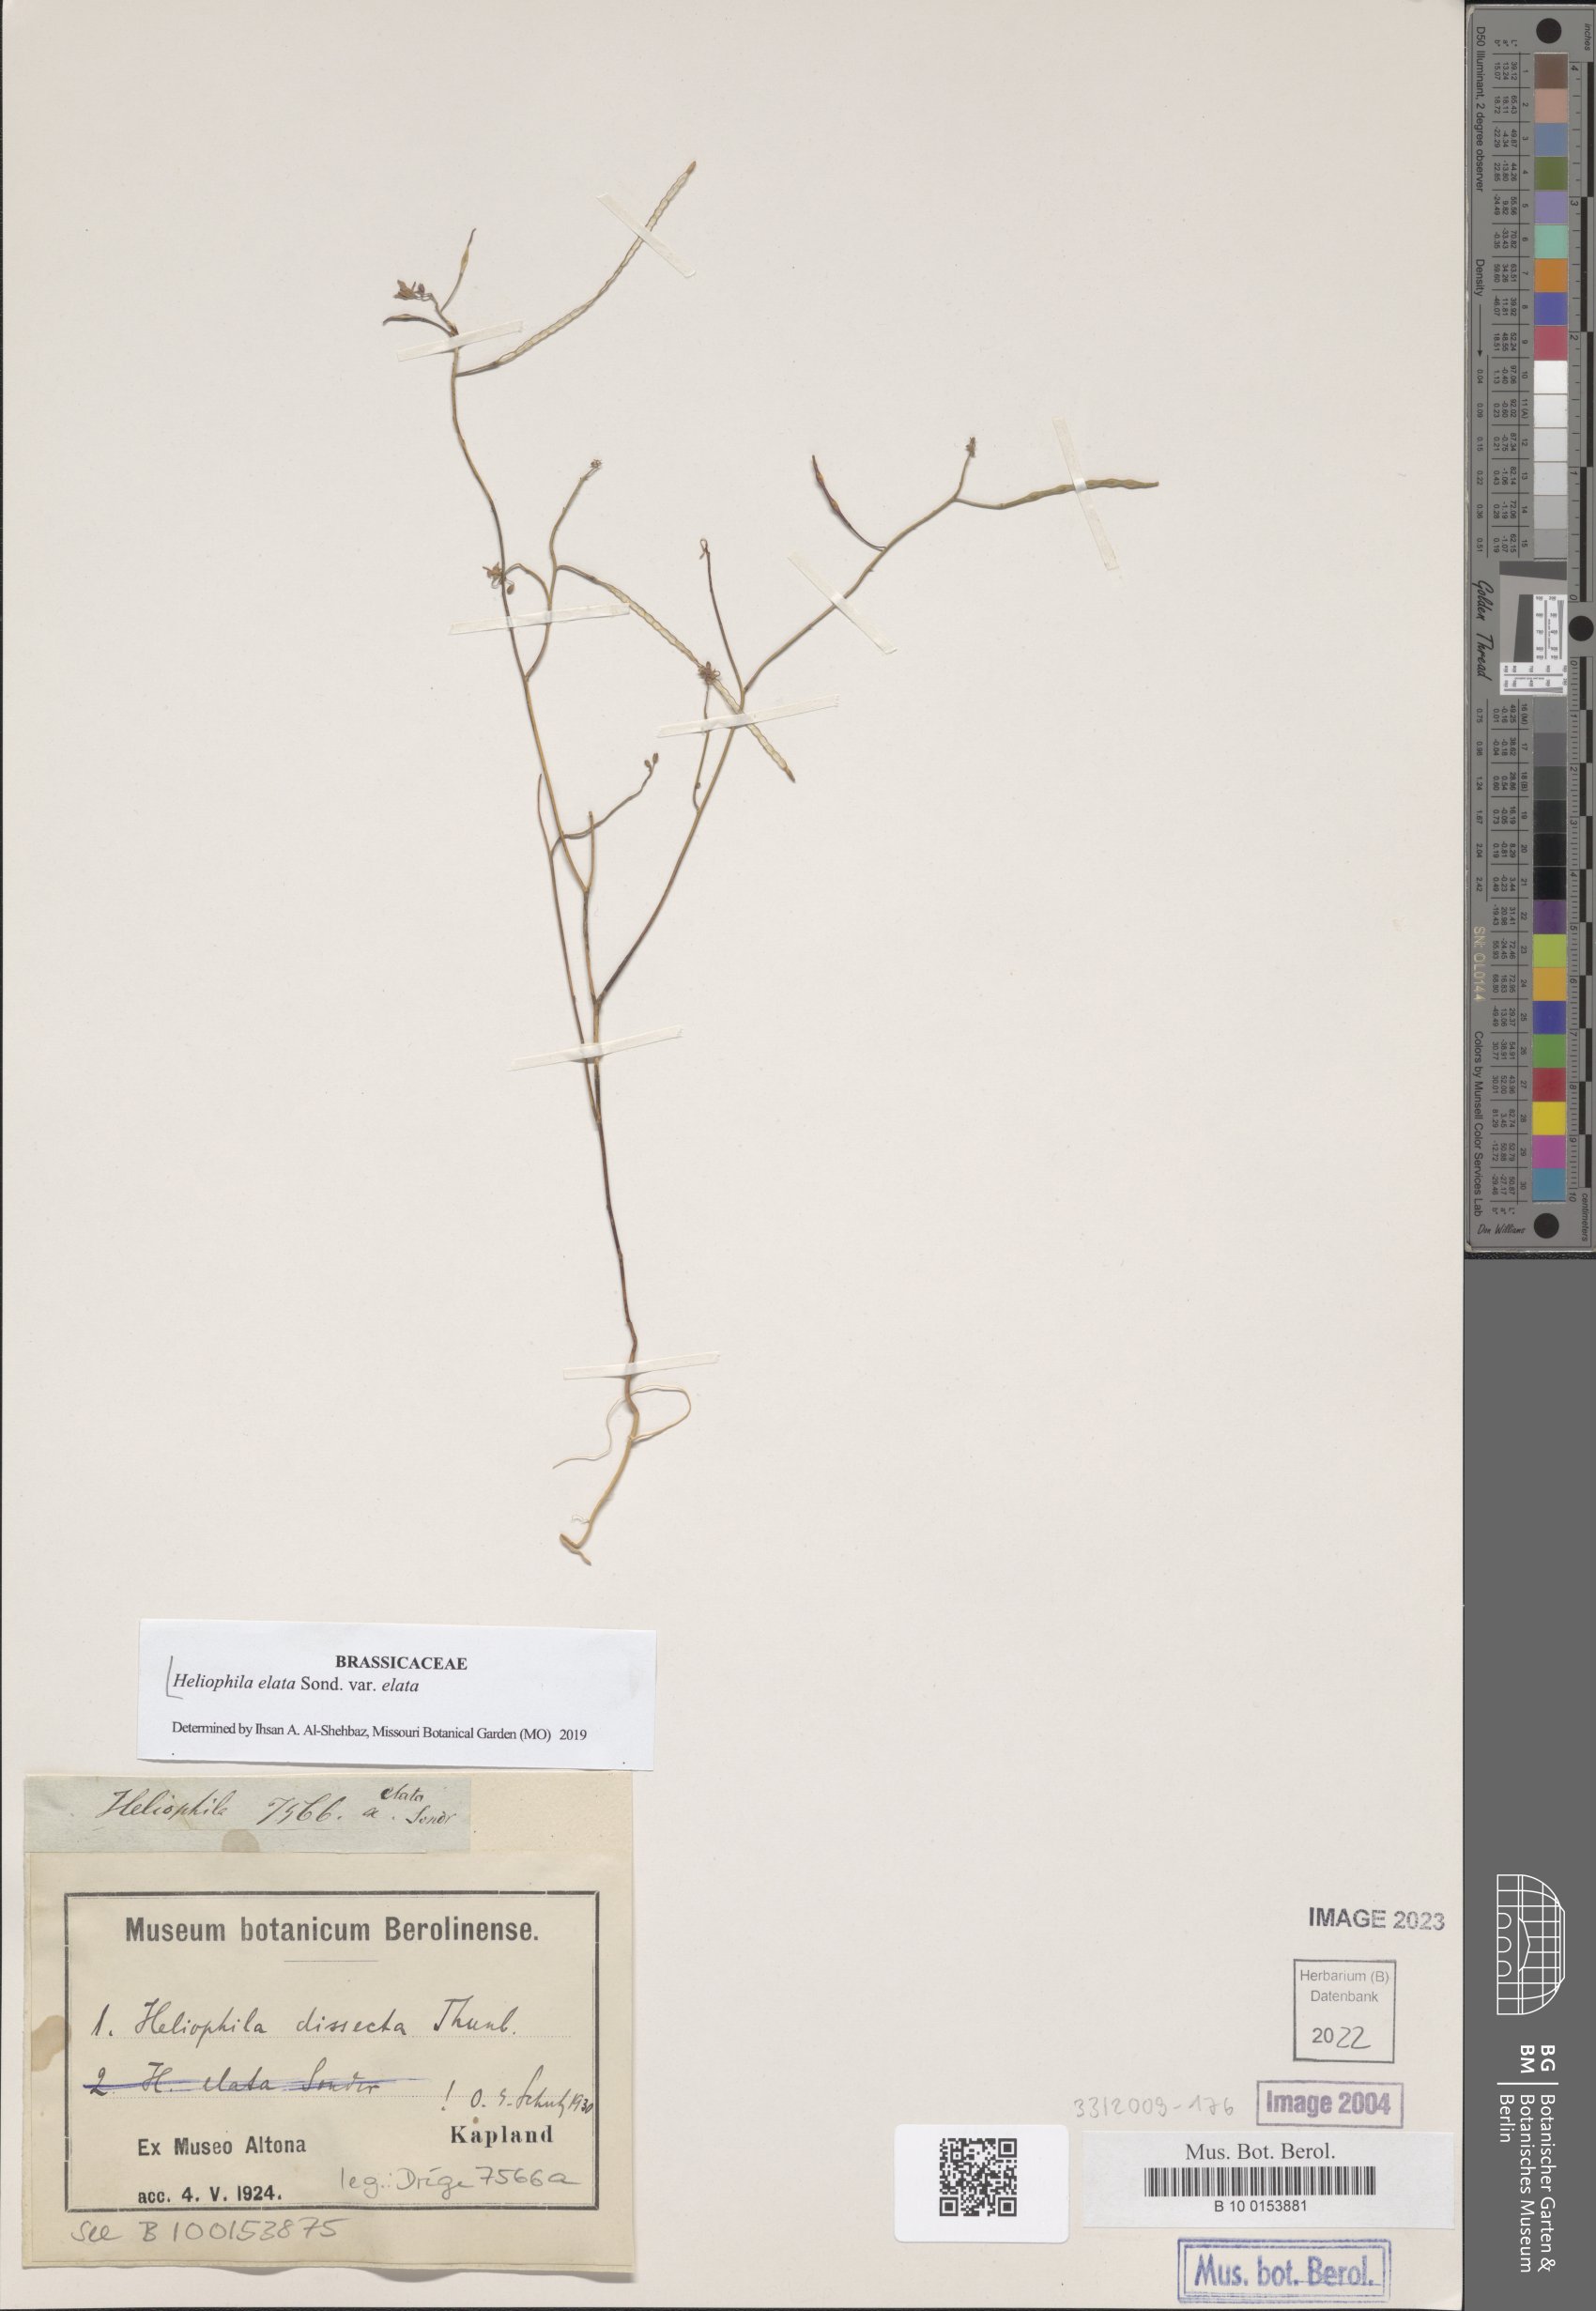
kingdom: Plantae
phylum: Tracheophyta
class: Magnoliopsida
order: Brassicales
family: Brassicaceae
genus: Heliophila
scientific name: Heliophila elata
